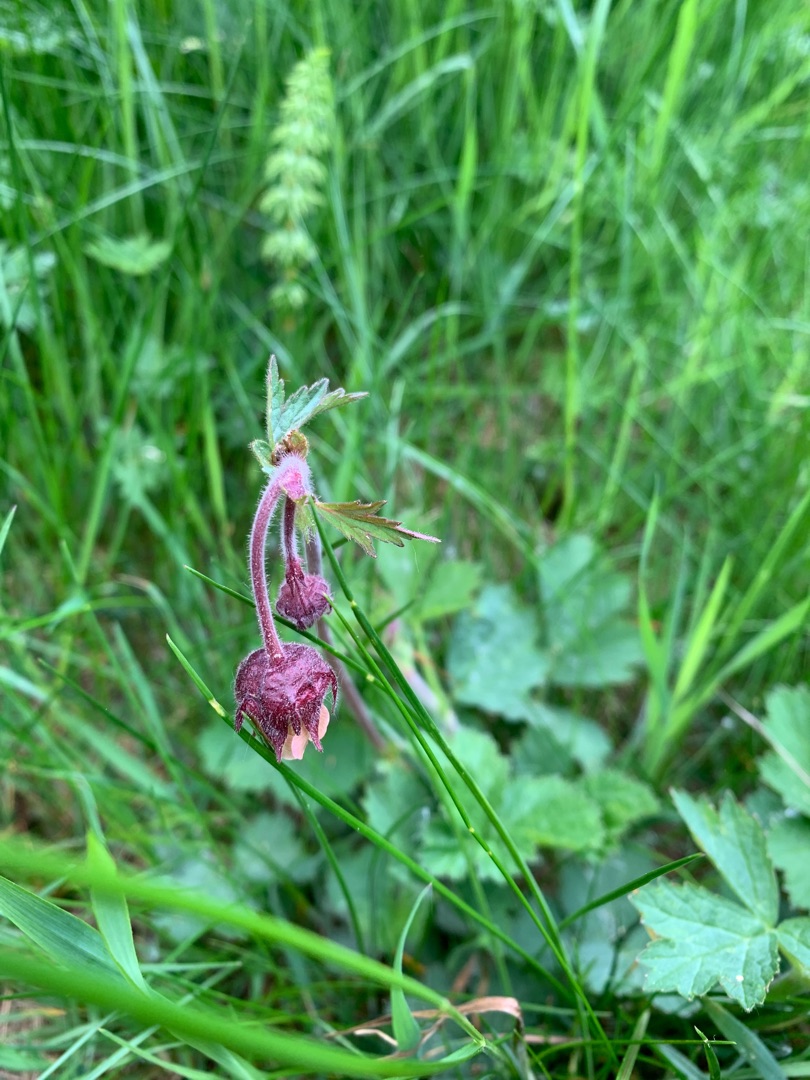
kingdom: Plantae
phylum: Tracheophyta
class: Magnoliopsida
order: Rosales
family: Rosaceae
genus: Geum
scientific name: Geum rivale
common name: Eng-nellikerod
